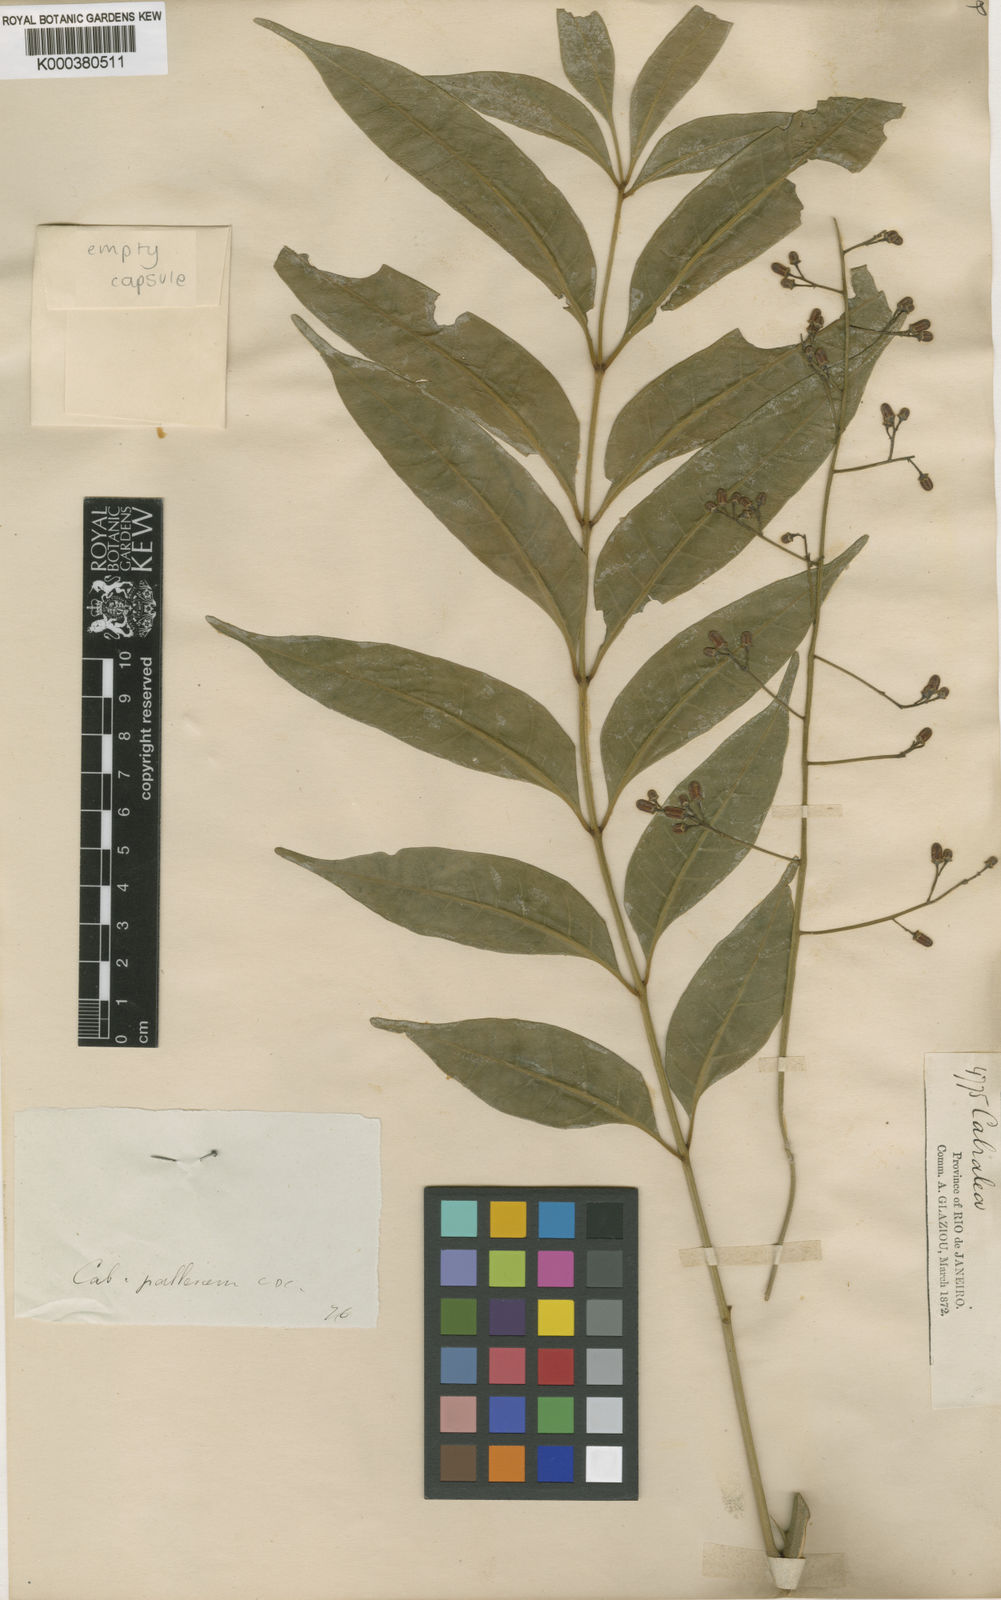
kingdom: Plantae
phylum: Tracheophyta
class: Magnoliopsida
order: Sapindales
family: Meliaceae
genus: Cabralea
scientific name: Cabralea canjerana
